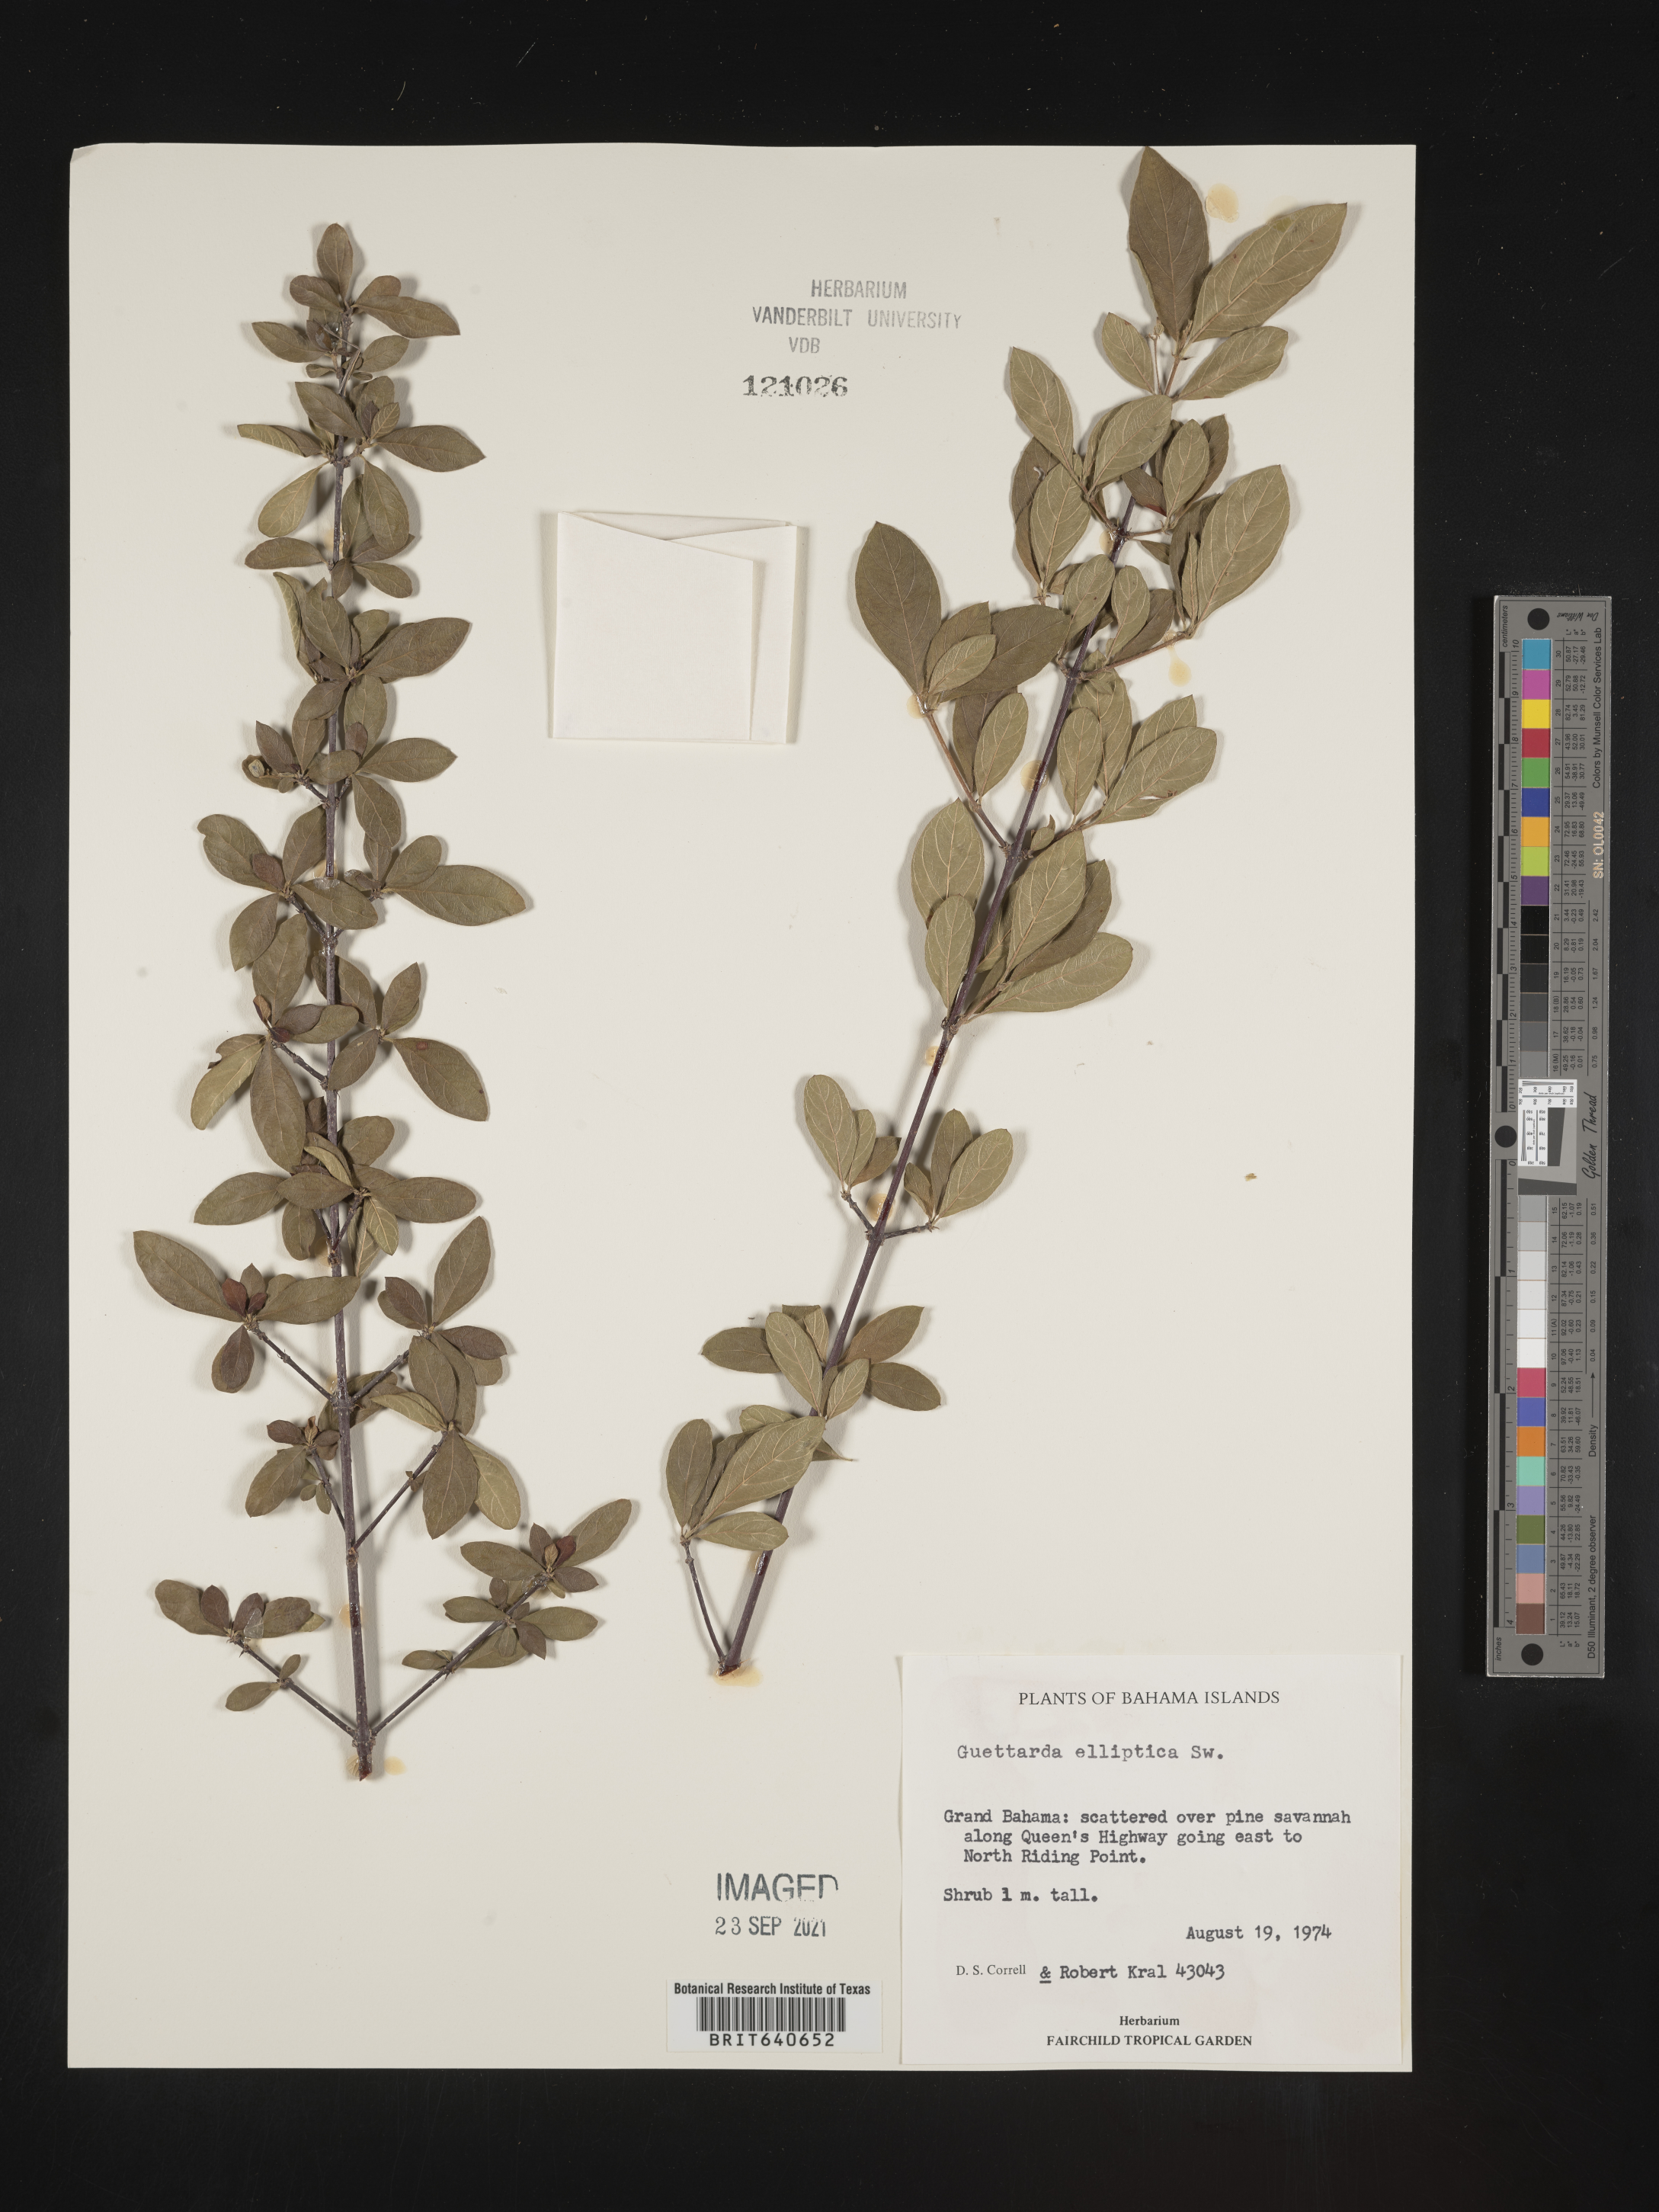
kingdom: Plantae
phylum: Tracheophyta
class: Magnoliopsida
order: Gentianales
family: Rubiaceae
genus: Guettarda
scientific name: Guettarda
